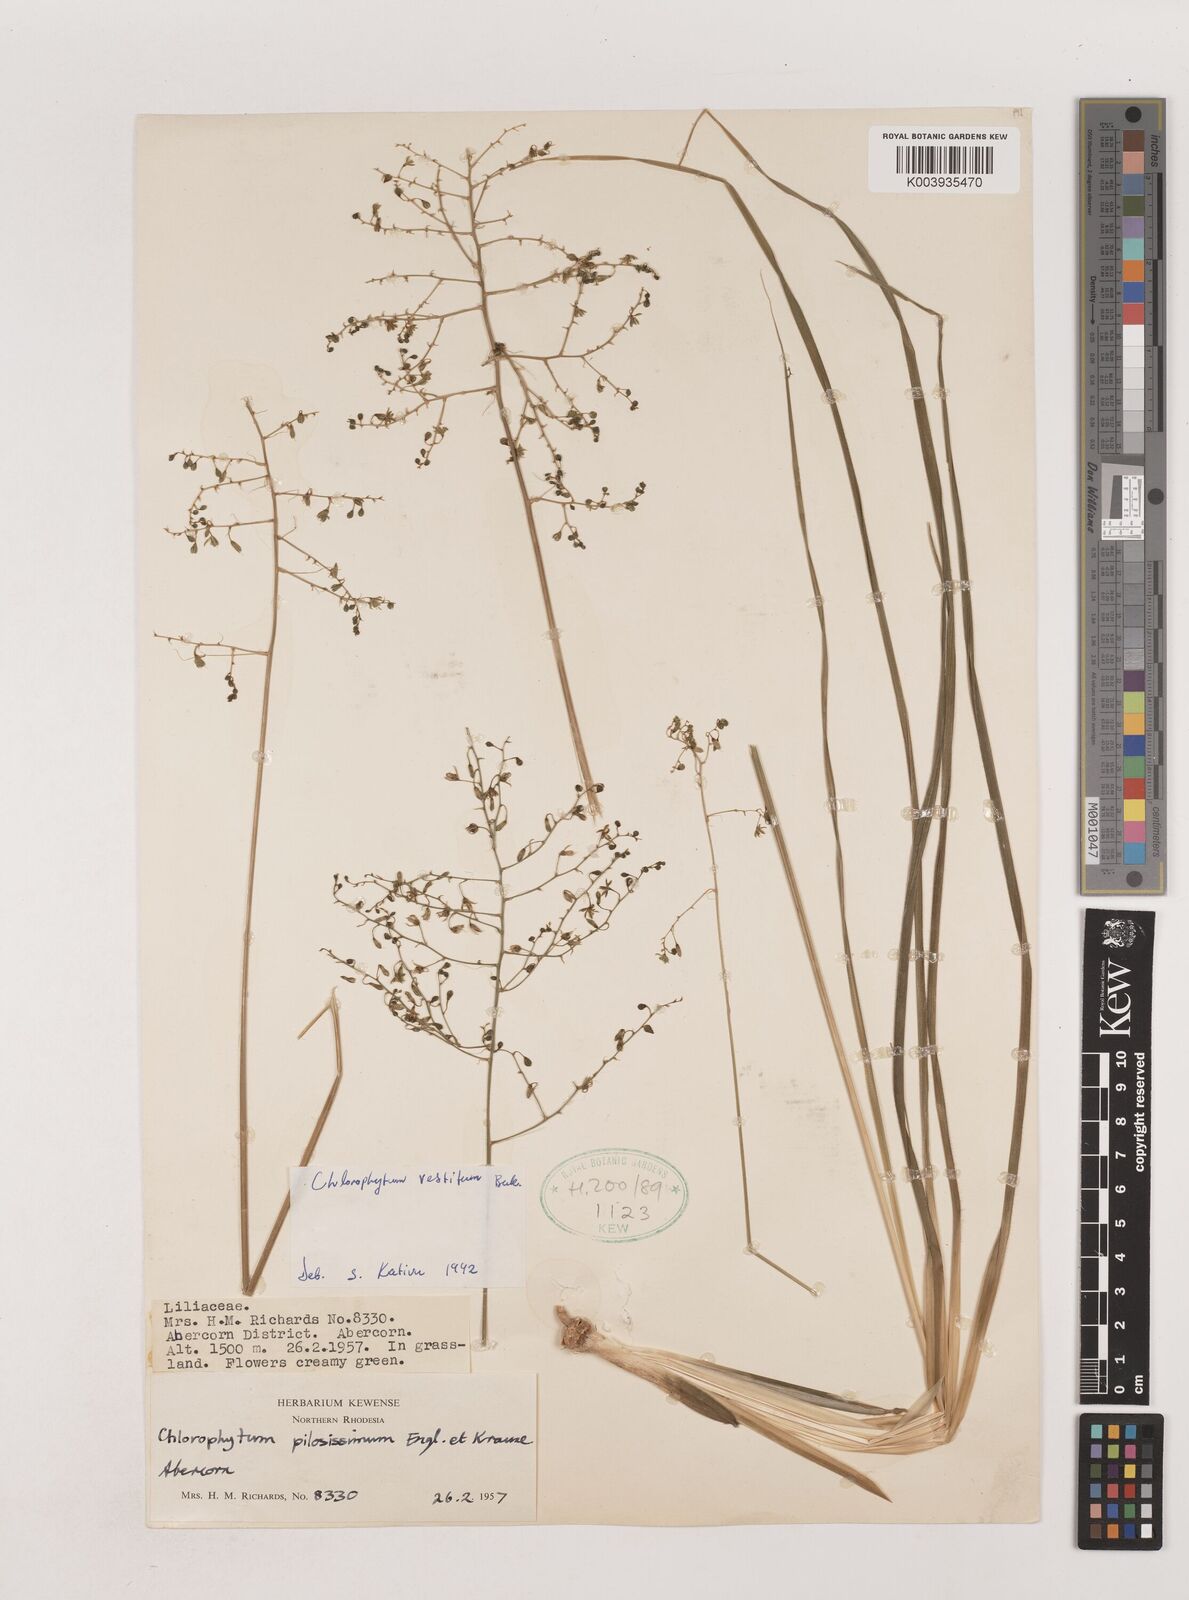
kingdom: Plantae
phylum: Tracheophyta
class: Liliopsida
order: Asparagales
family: Asparagaceae
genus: Chlorophytum
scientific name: Chlorophytum vestitum
